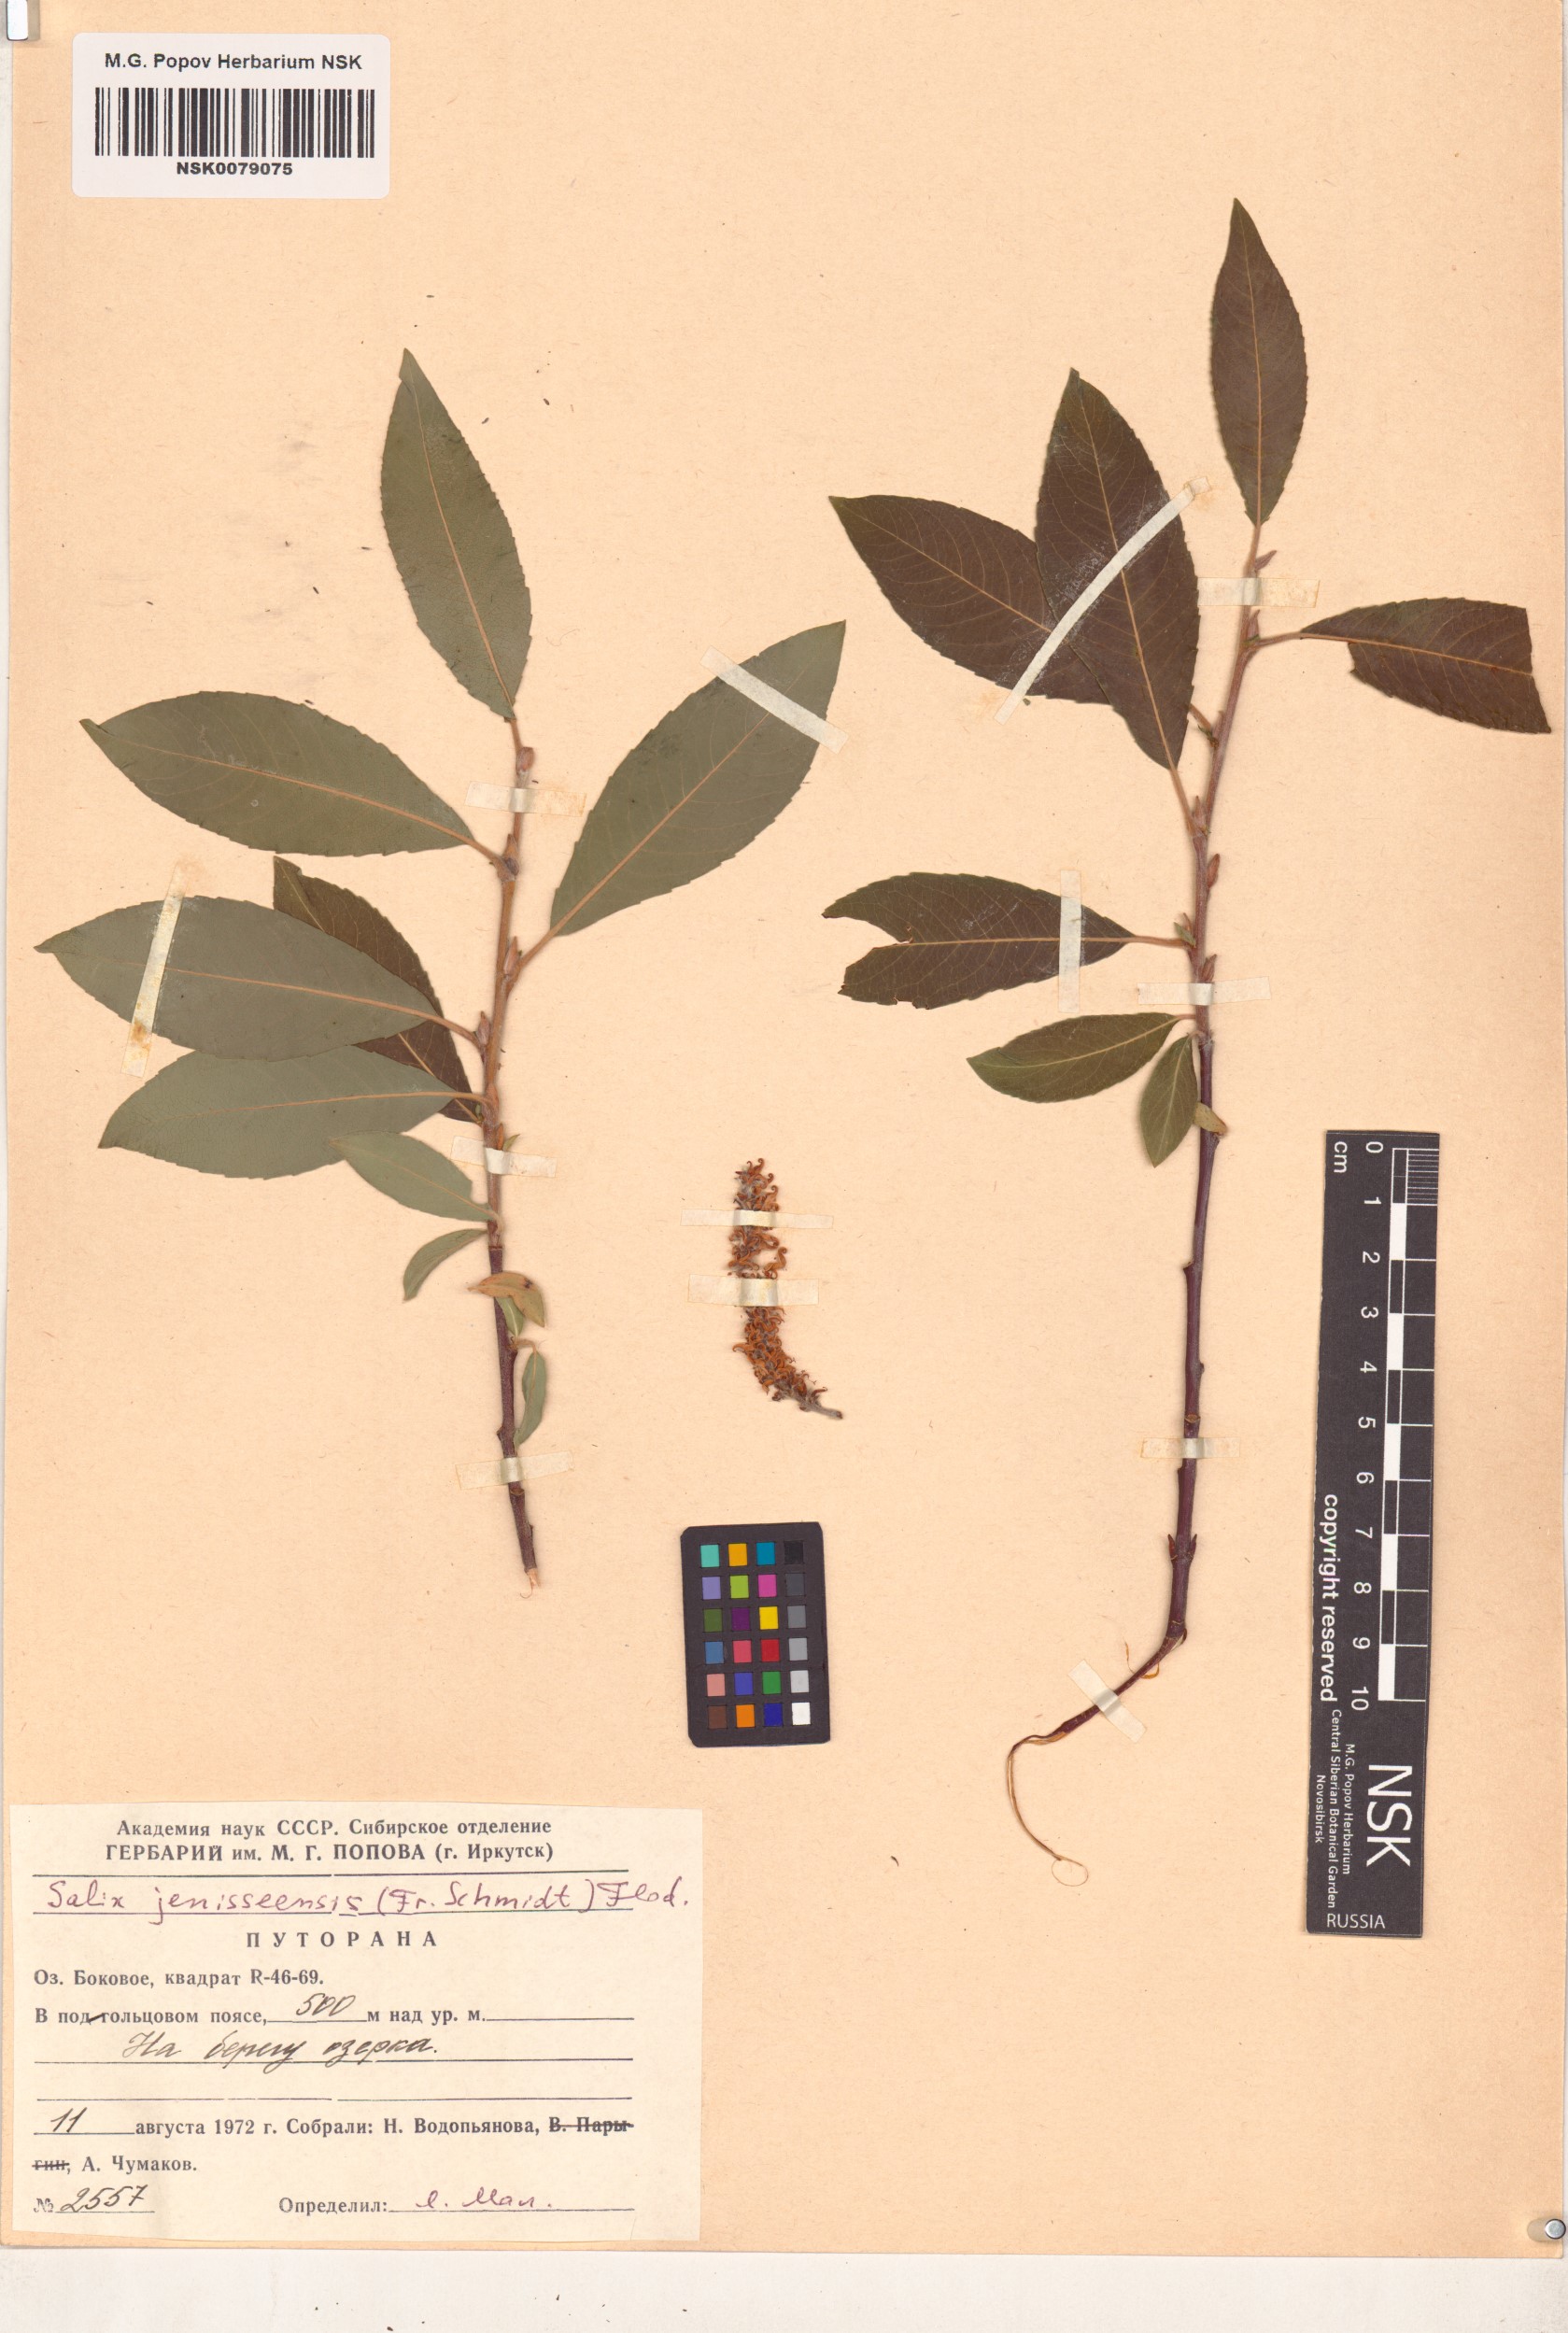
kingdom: Plantae
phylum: Tracheophyta
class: Magnoliopsida
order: Malpighiales
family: Salicaceae
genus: Salix
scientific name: Salix jenisseensis
